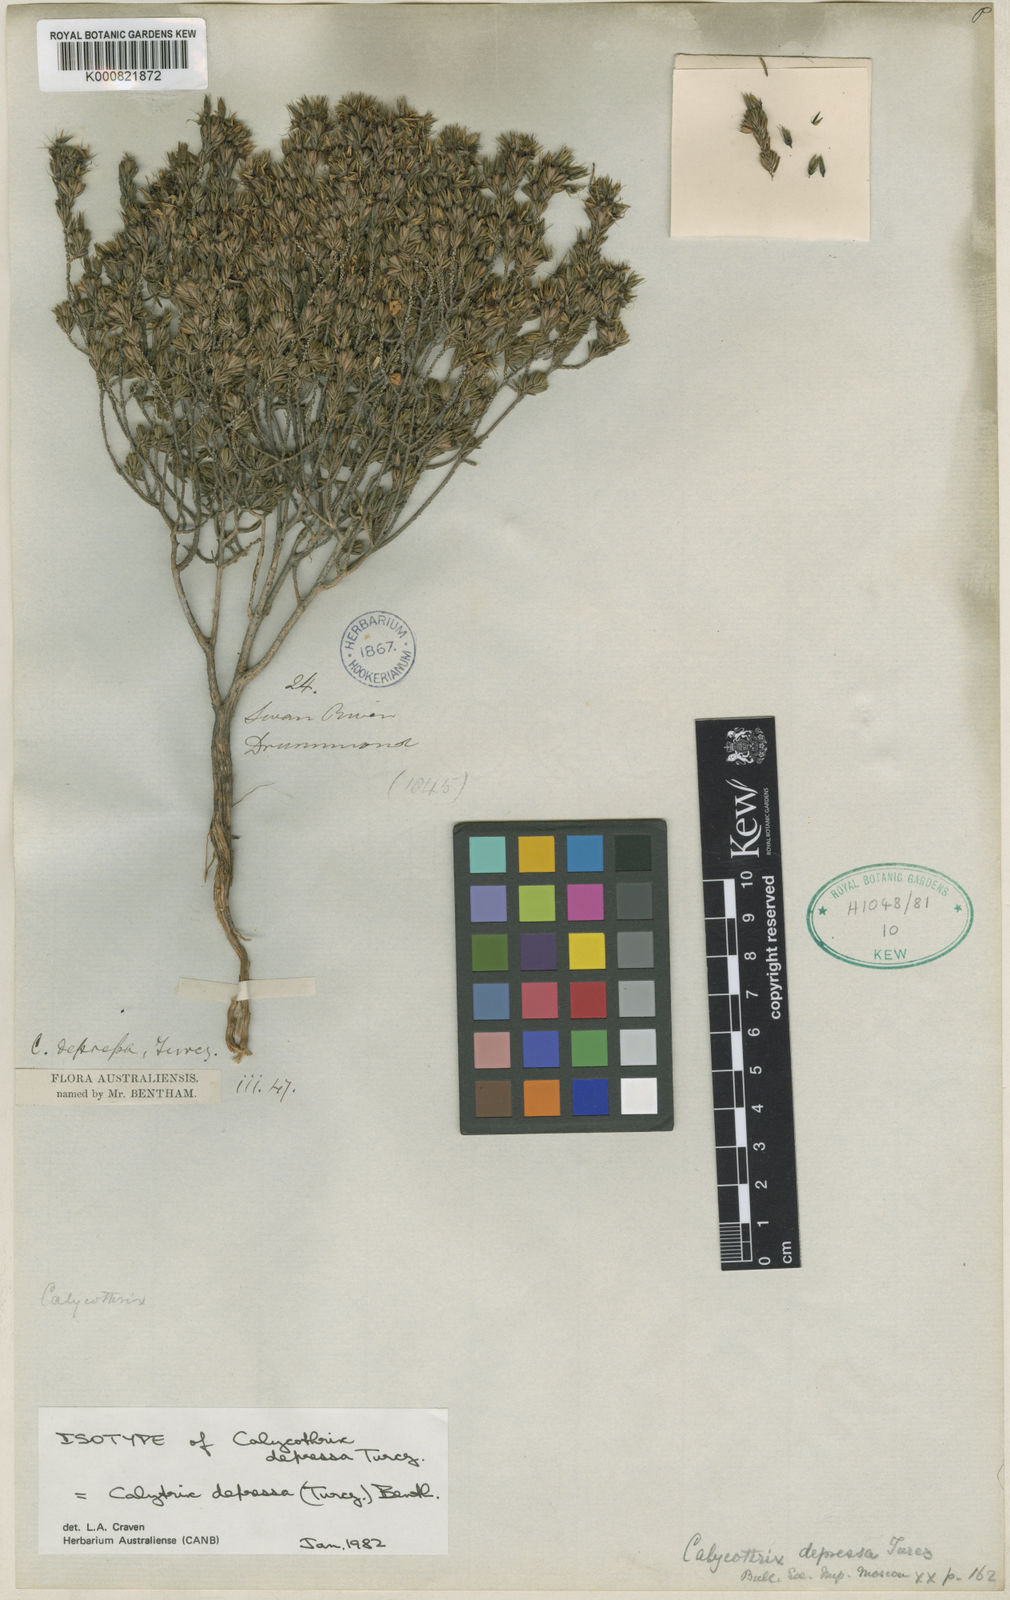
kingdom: Plantae
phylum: Tracheophyta
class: Magnoliopsida
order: Myrtales
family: Myrtaceae
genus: Calytrix
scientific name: Calytrix depressa
